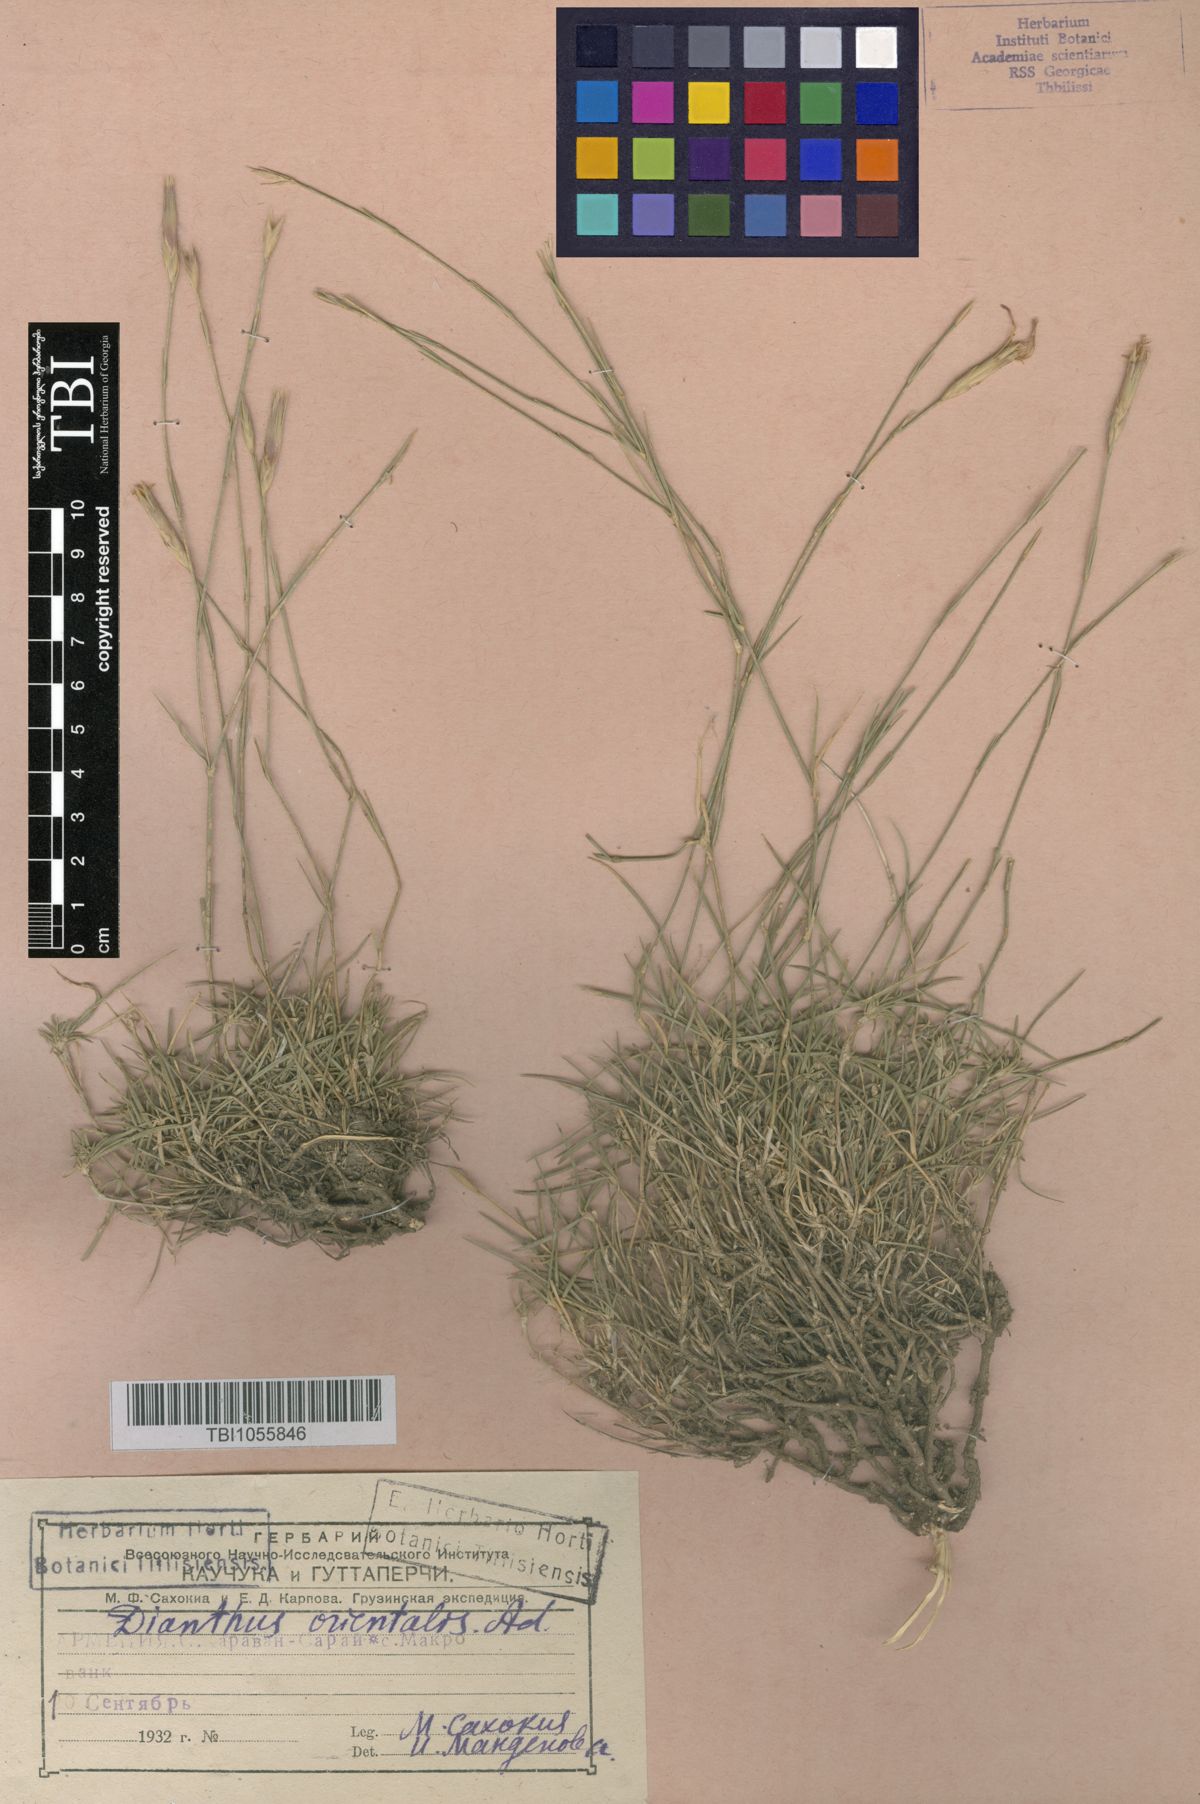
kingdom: Plantae
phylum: Tracheophyta
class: Magnoliopsida
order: Caryophyllales
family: Caryophyllaceae
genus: Dianthus
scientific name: Dianthus orientalis
